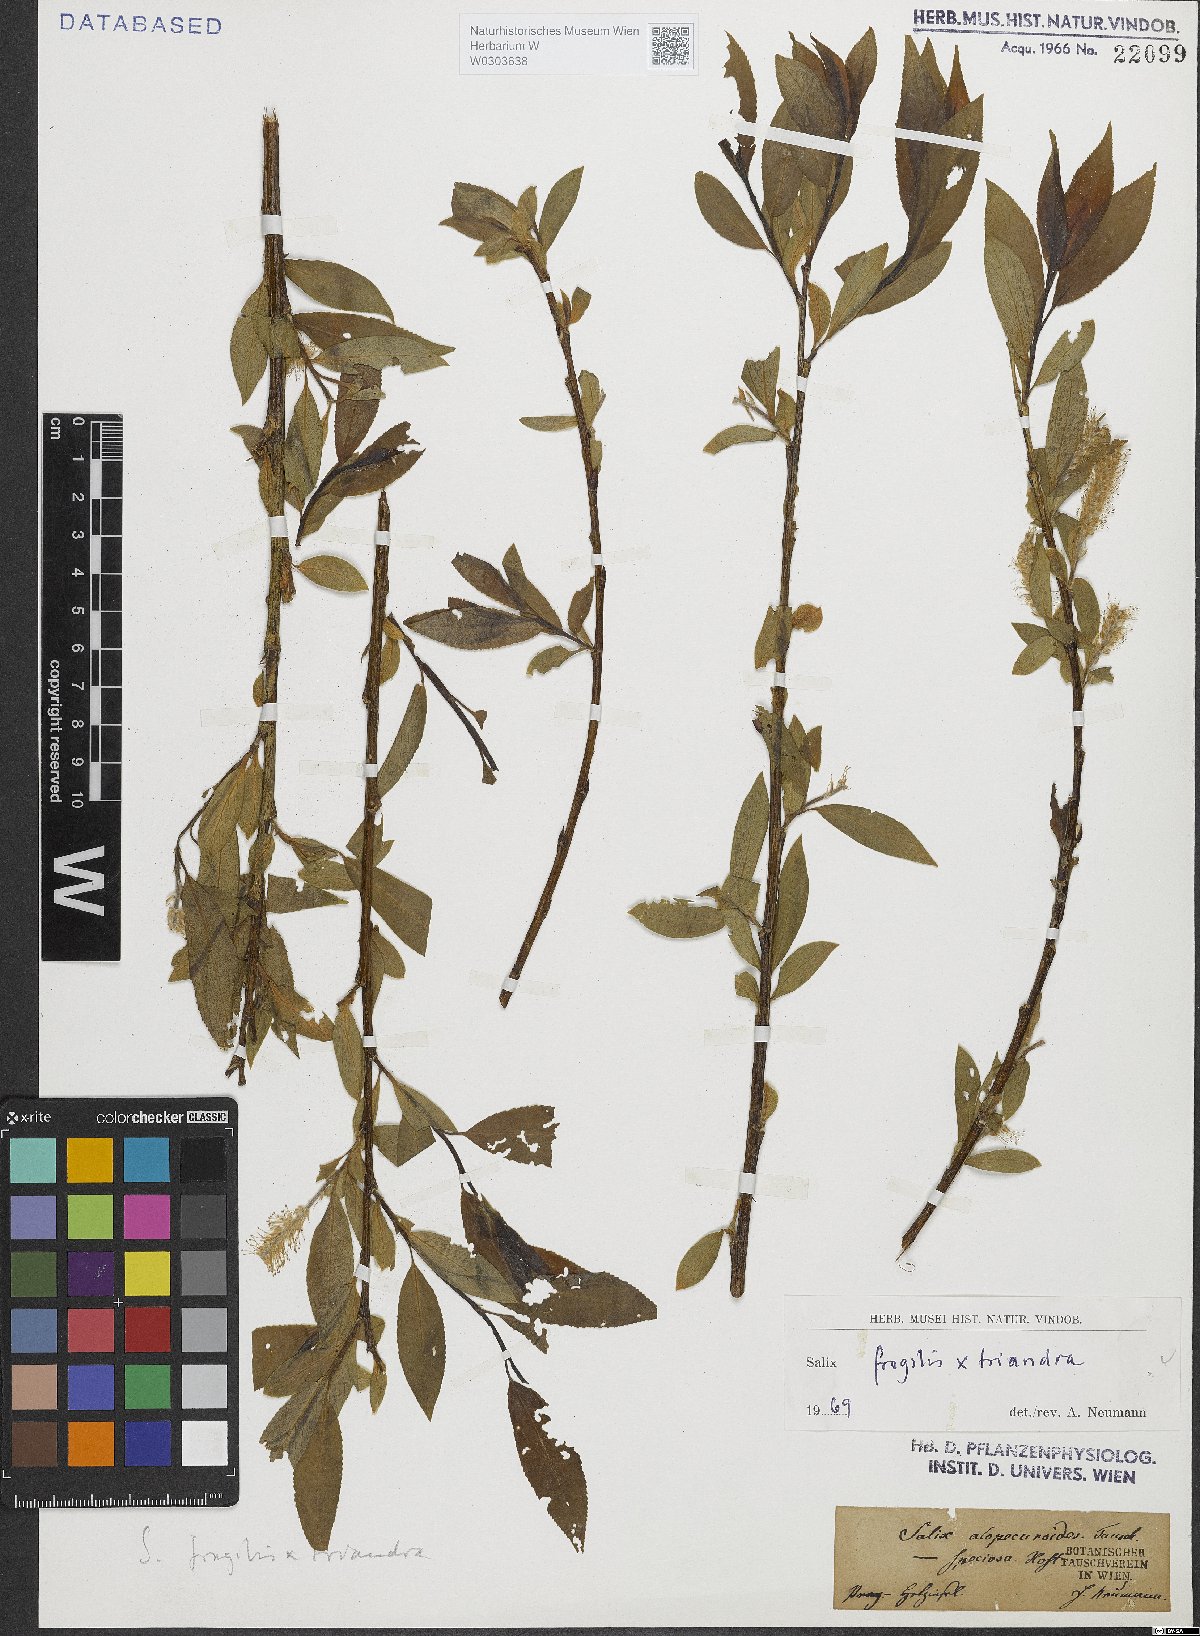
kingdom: Plantae
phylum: Tracheophyta
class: Magnoliopsida
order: Malpighiales
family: Salicaceae
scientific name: Salicaceae
